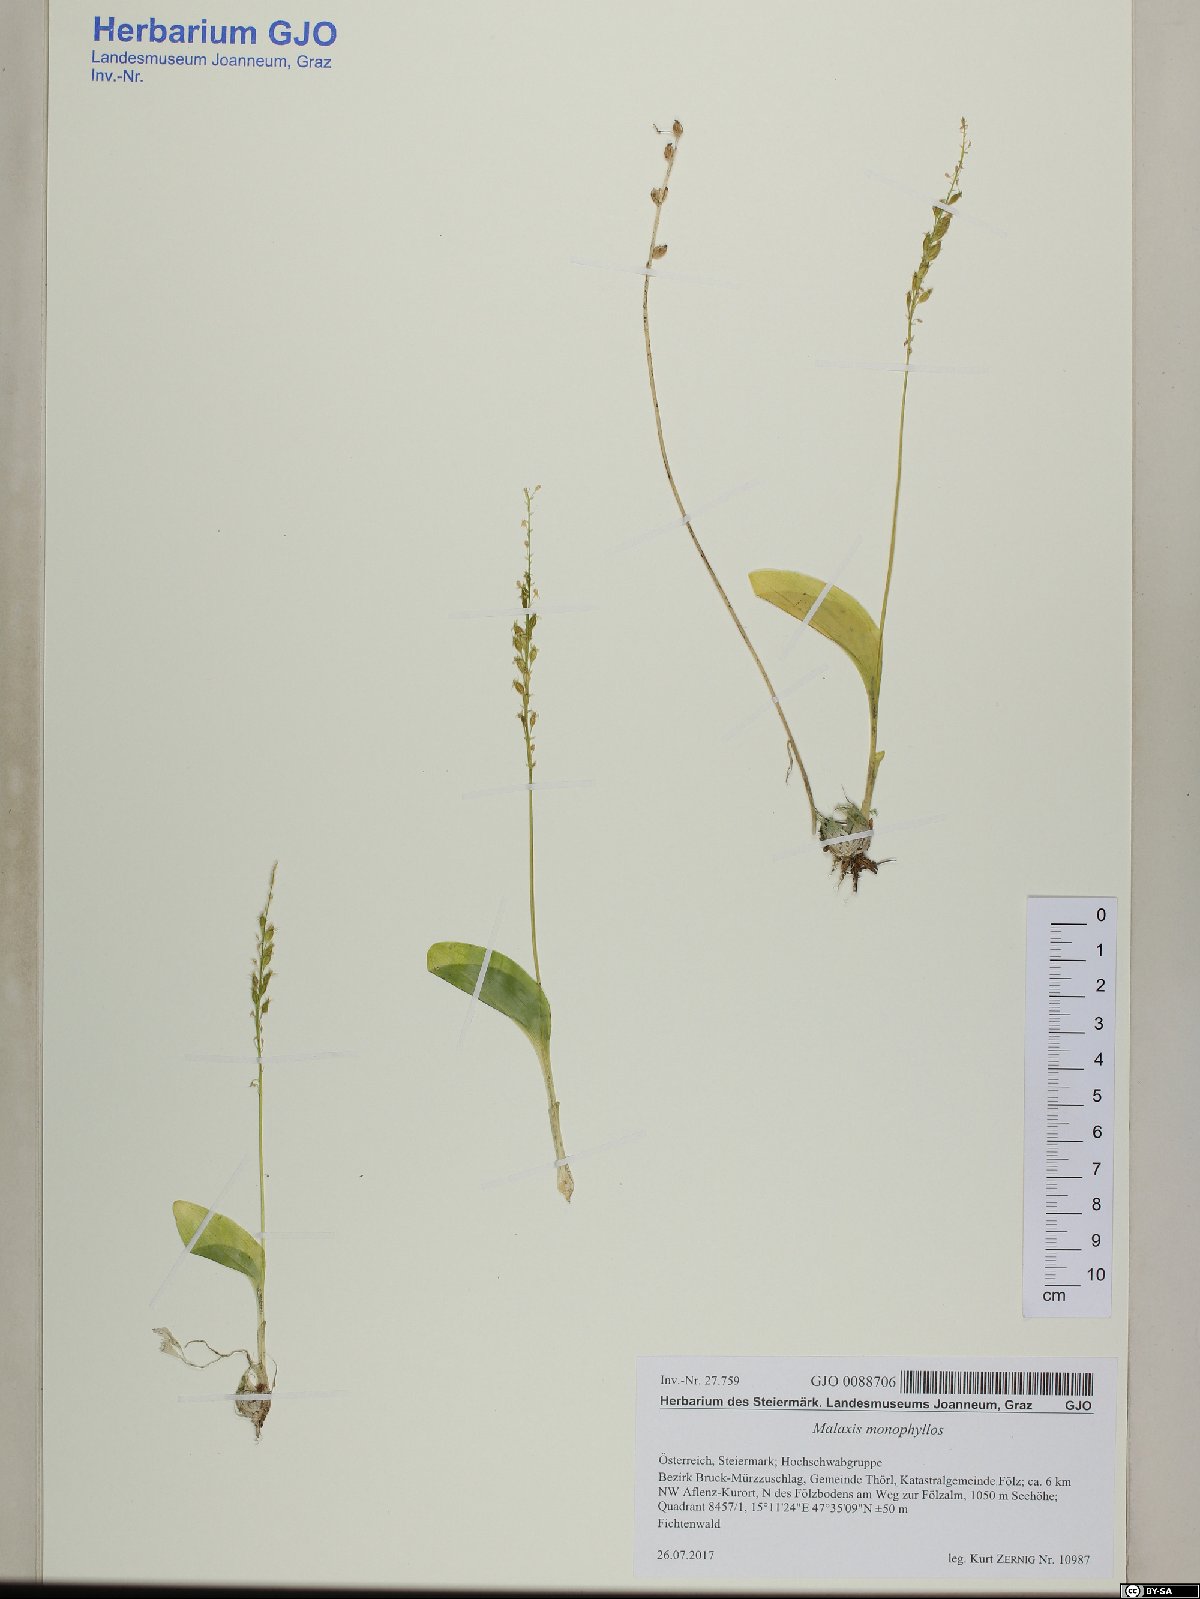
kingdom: Plantae
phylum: Tracheophyta
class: Liliopsida
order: Asparagales
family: Orchidaceae
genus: Malaxis
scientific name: Malaxis monophyllos
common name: White adder's-mouth
